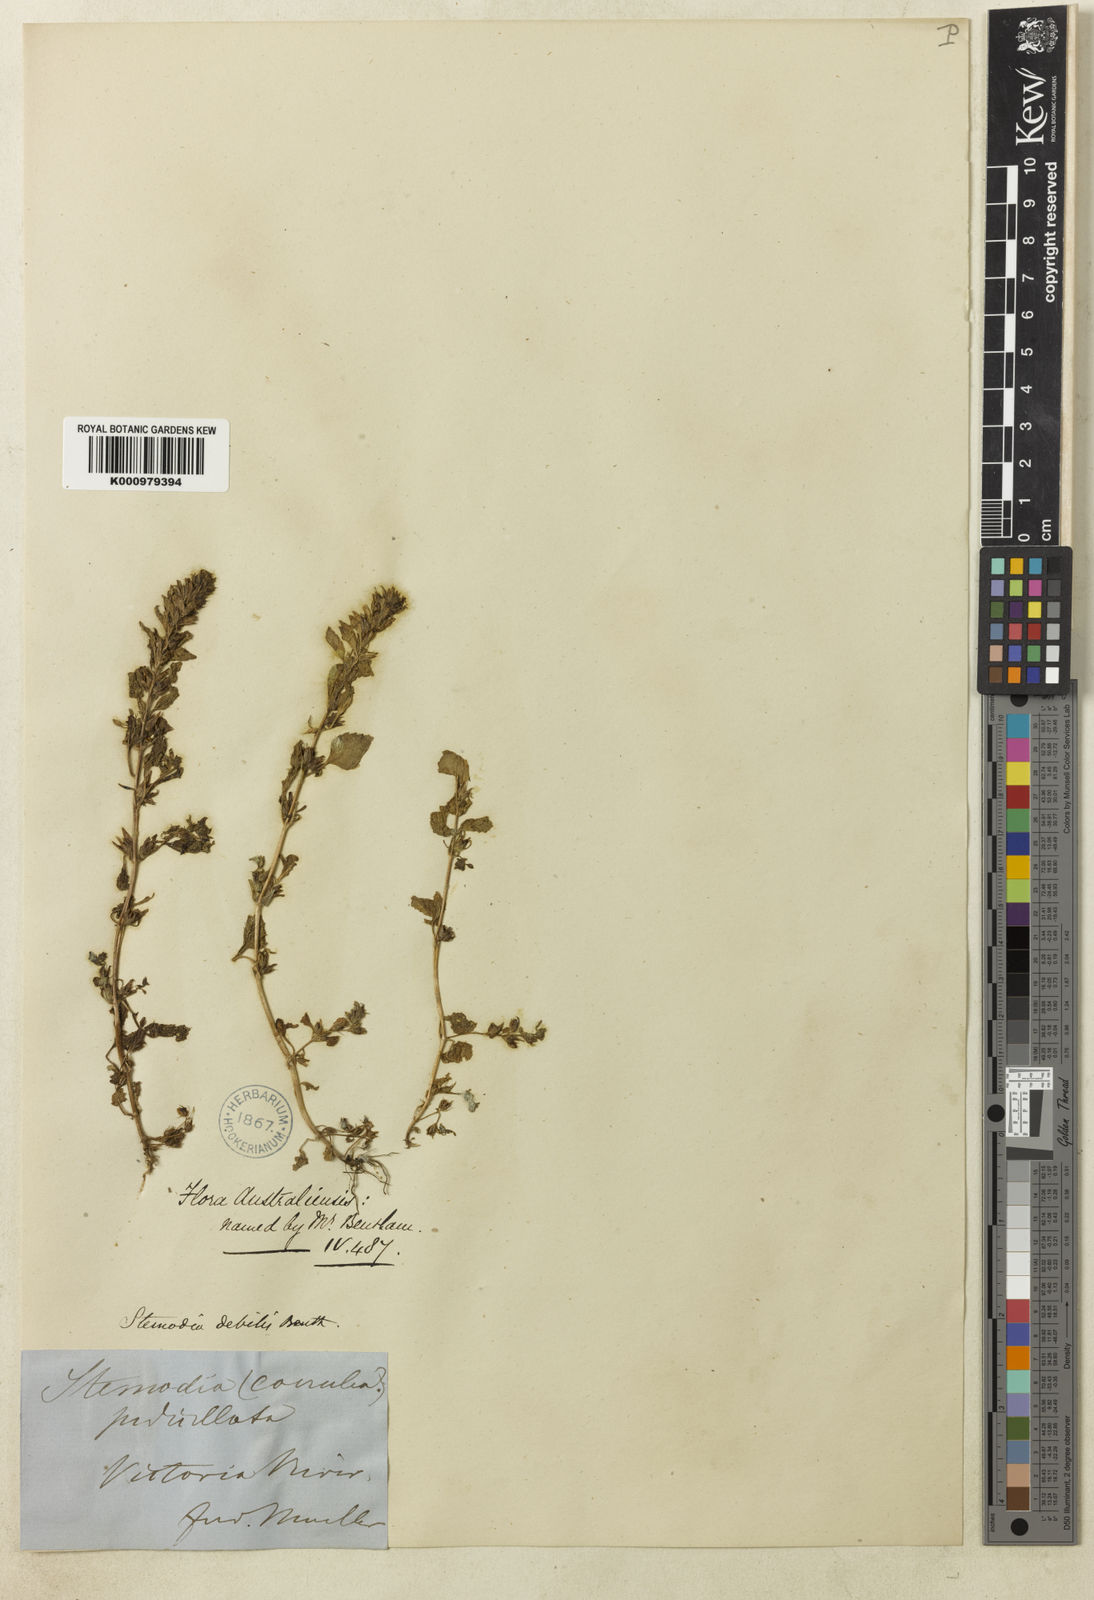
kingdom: Plantae
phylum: Tracheophyta
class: Magnoliopsida
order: Lamiales
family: Plantaginaceae
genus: Stemodia
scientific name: Stemodia debilis
